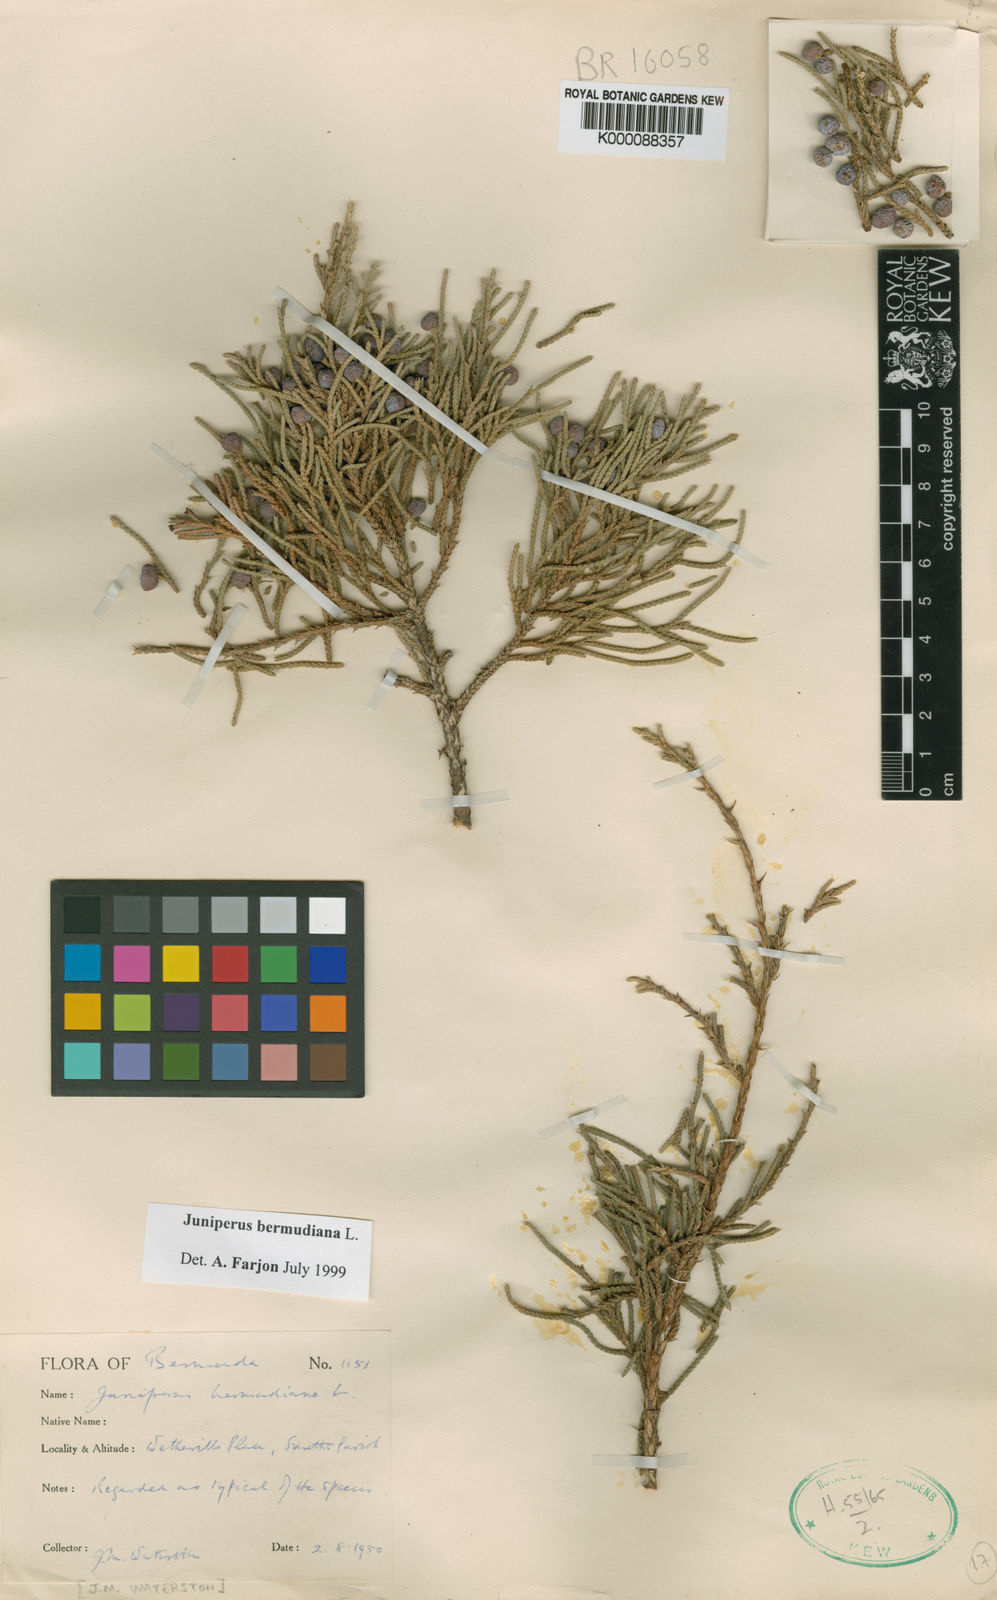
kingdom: Plantae
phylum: Tracheophyta
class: Pinopsida
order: Pinales
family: Cupressaceae
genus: Juniperus
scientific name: Juniperus bermudiana
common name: Bermuda juniper
